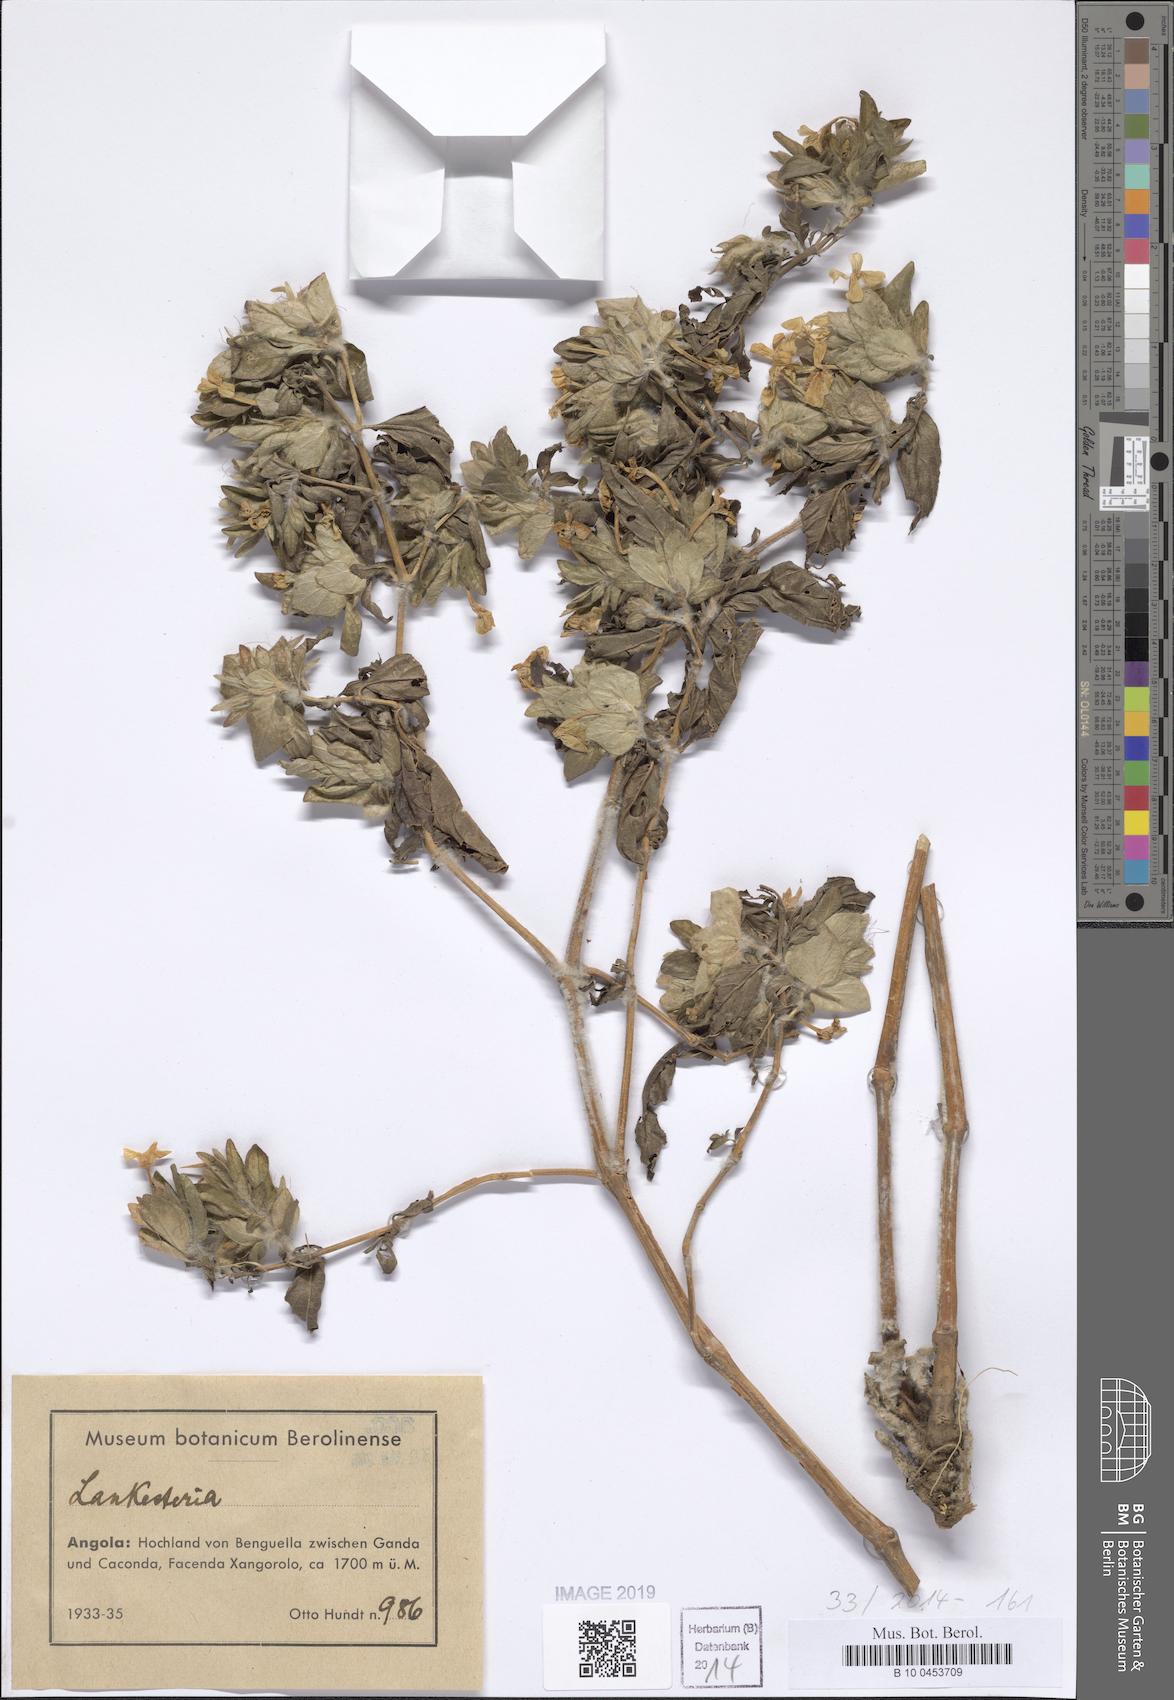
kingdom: Plantae
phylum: Tracheophyta
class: Magnoliopsida
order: Lamiales
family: Acanthaceae
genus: Lankesteria
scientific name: Lankesteria
